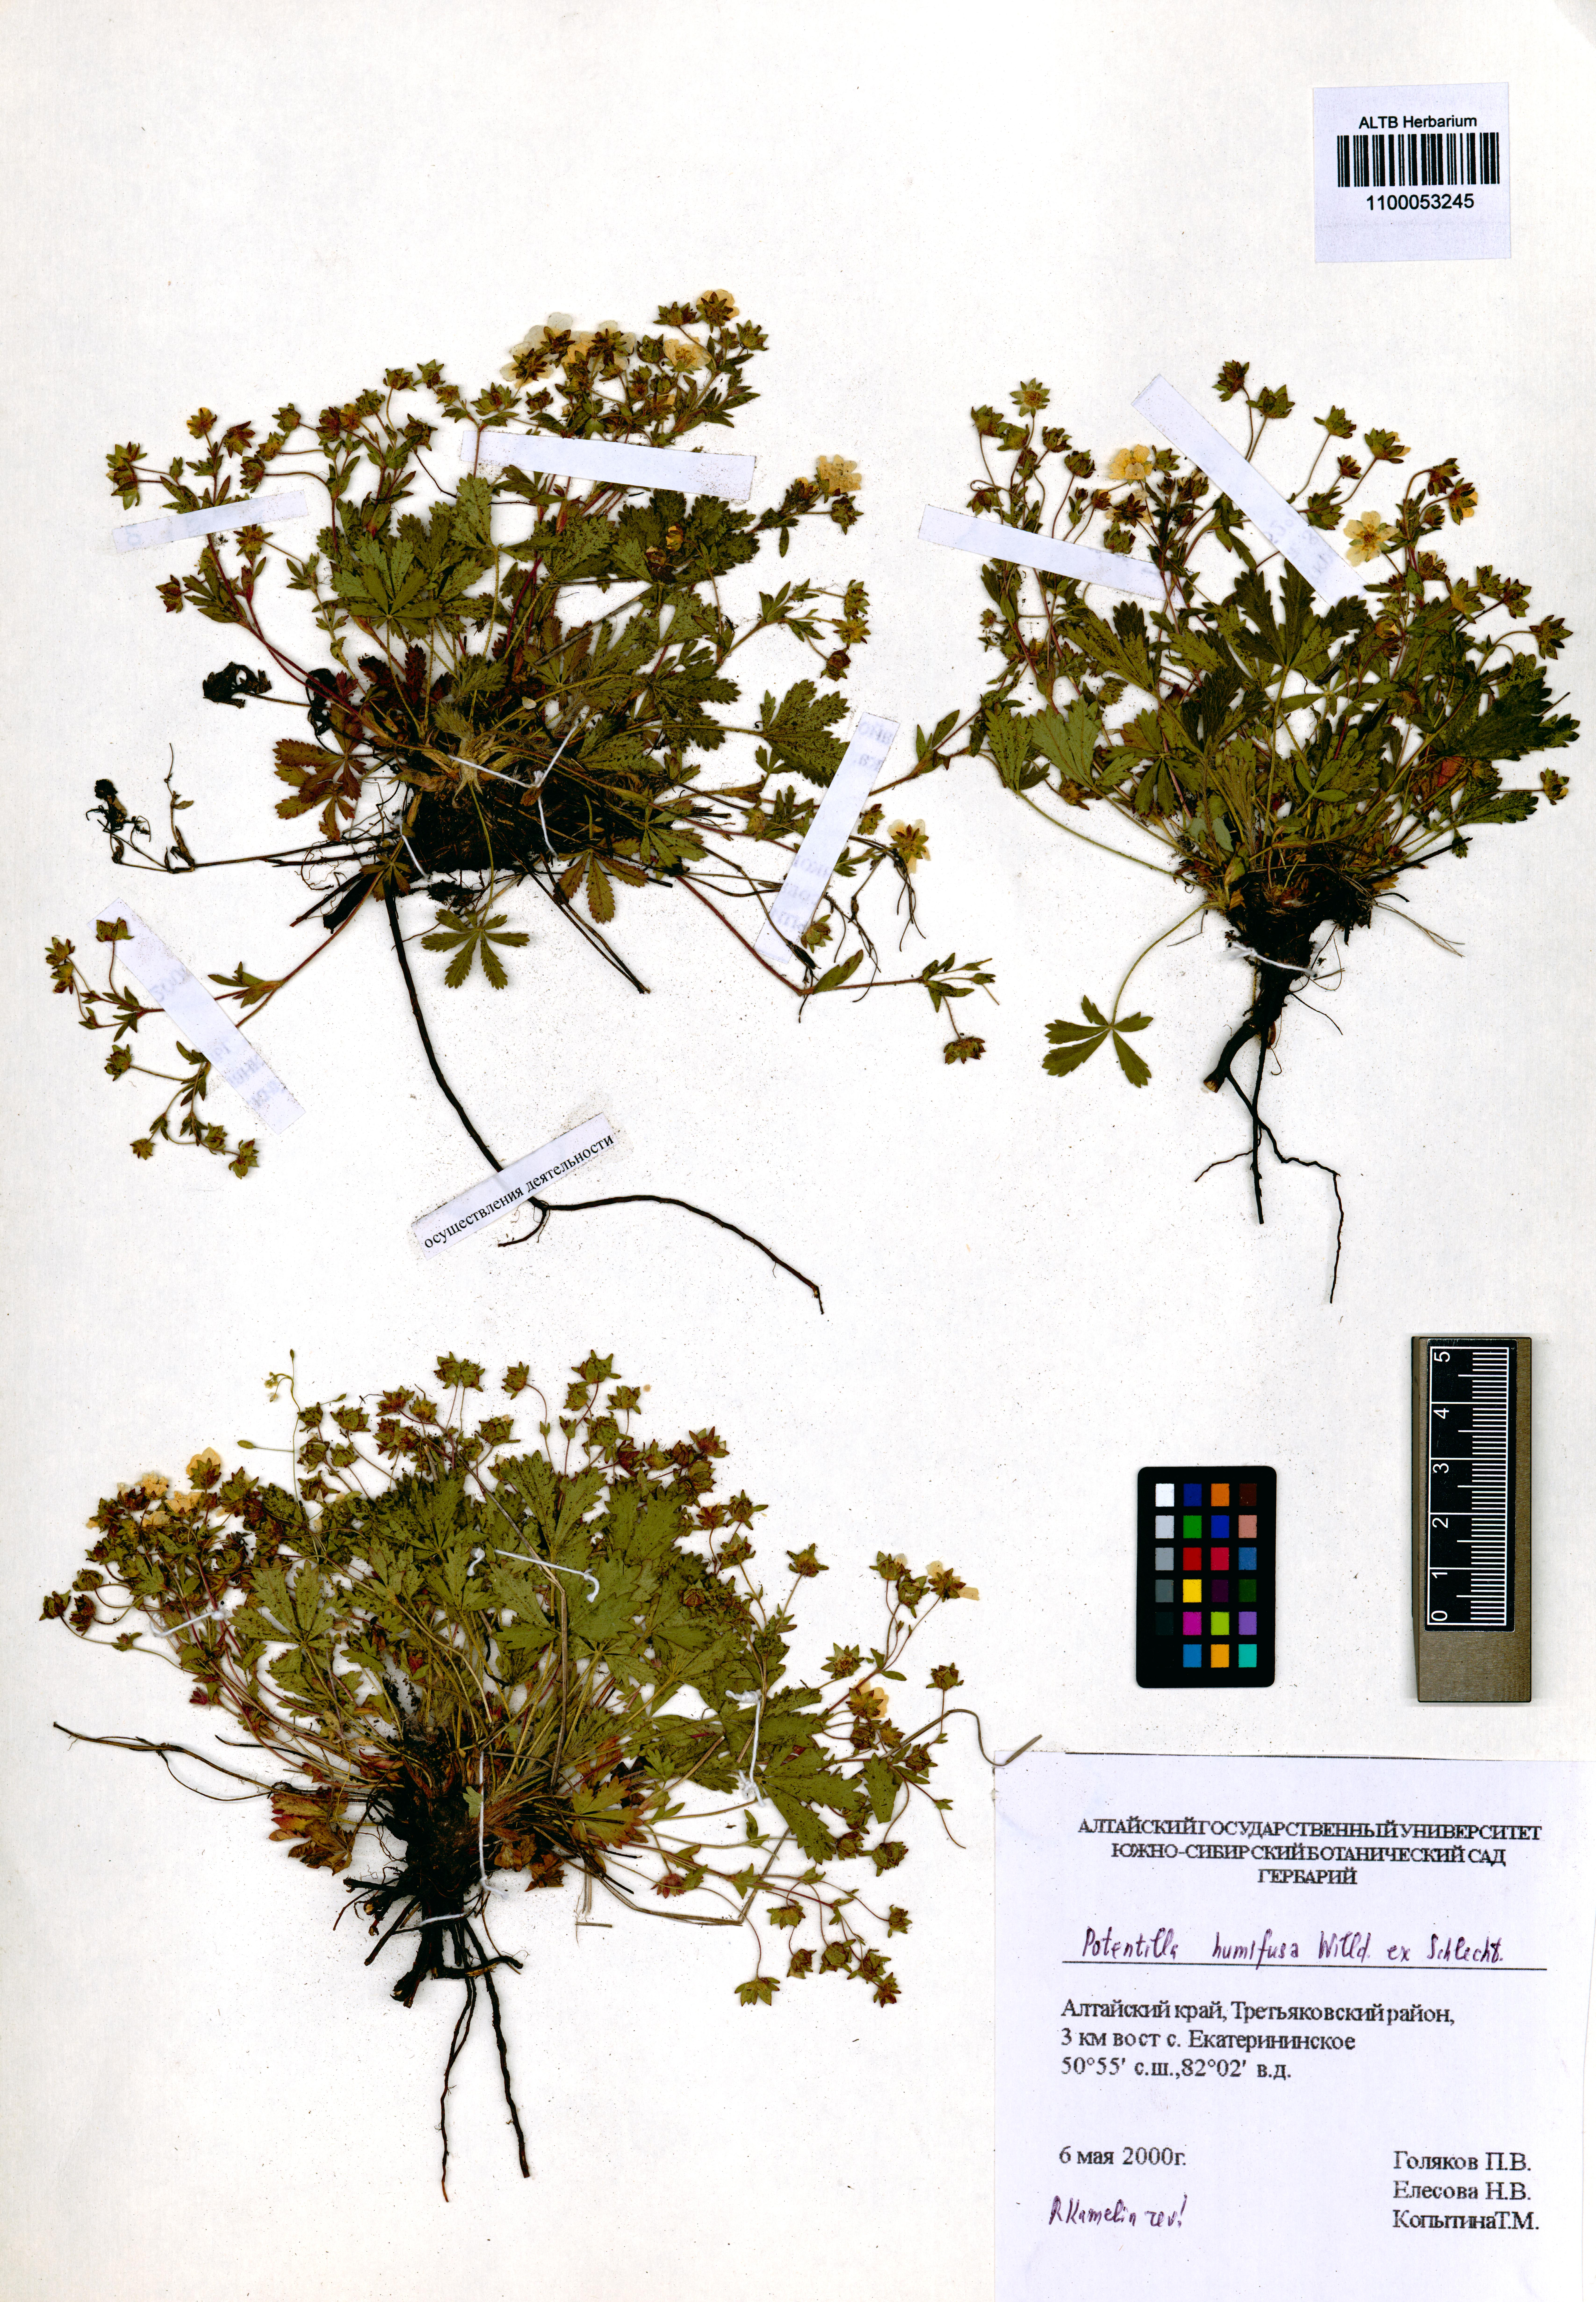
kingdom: Plantae
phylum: Tracheophyta
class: Magnoliopsida
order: Rosales
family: Rosaceae
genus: Potentilla
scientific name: Potentilla humifusa
